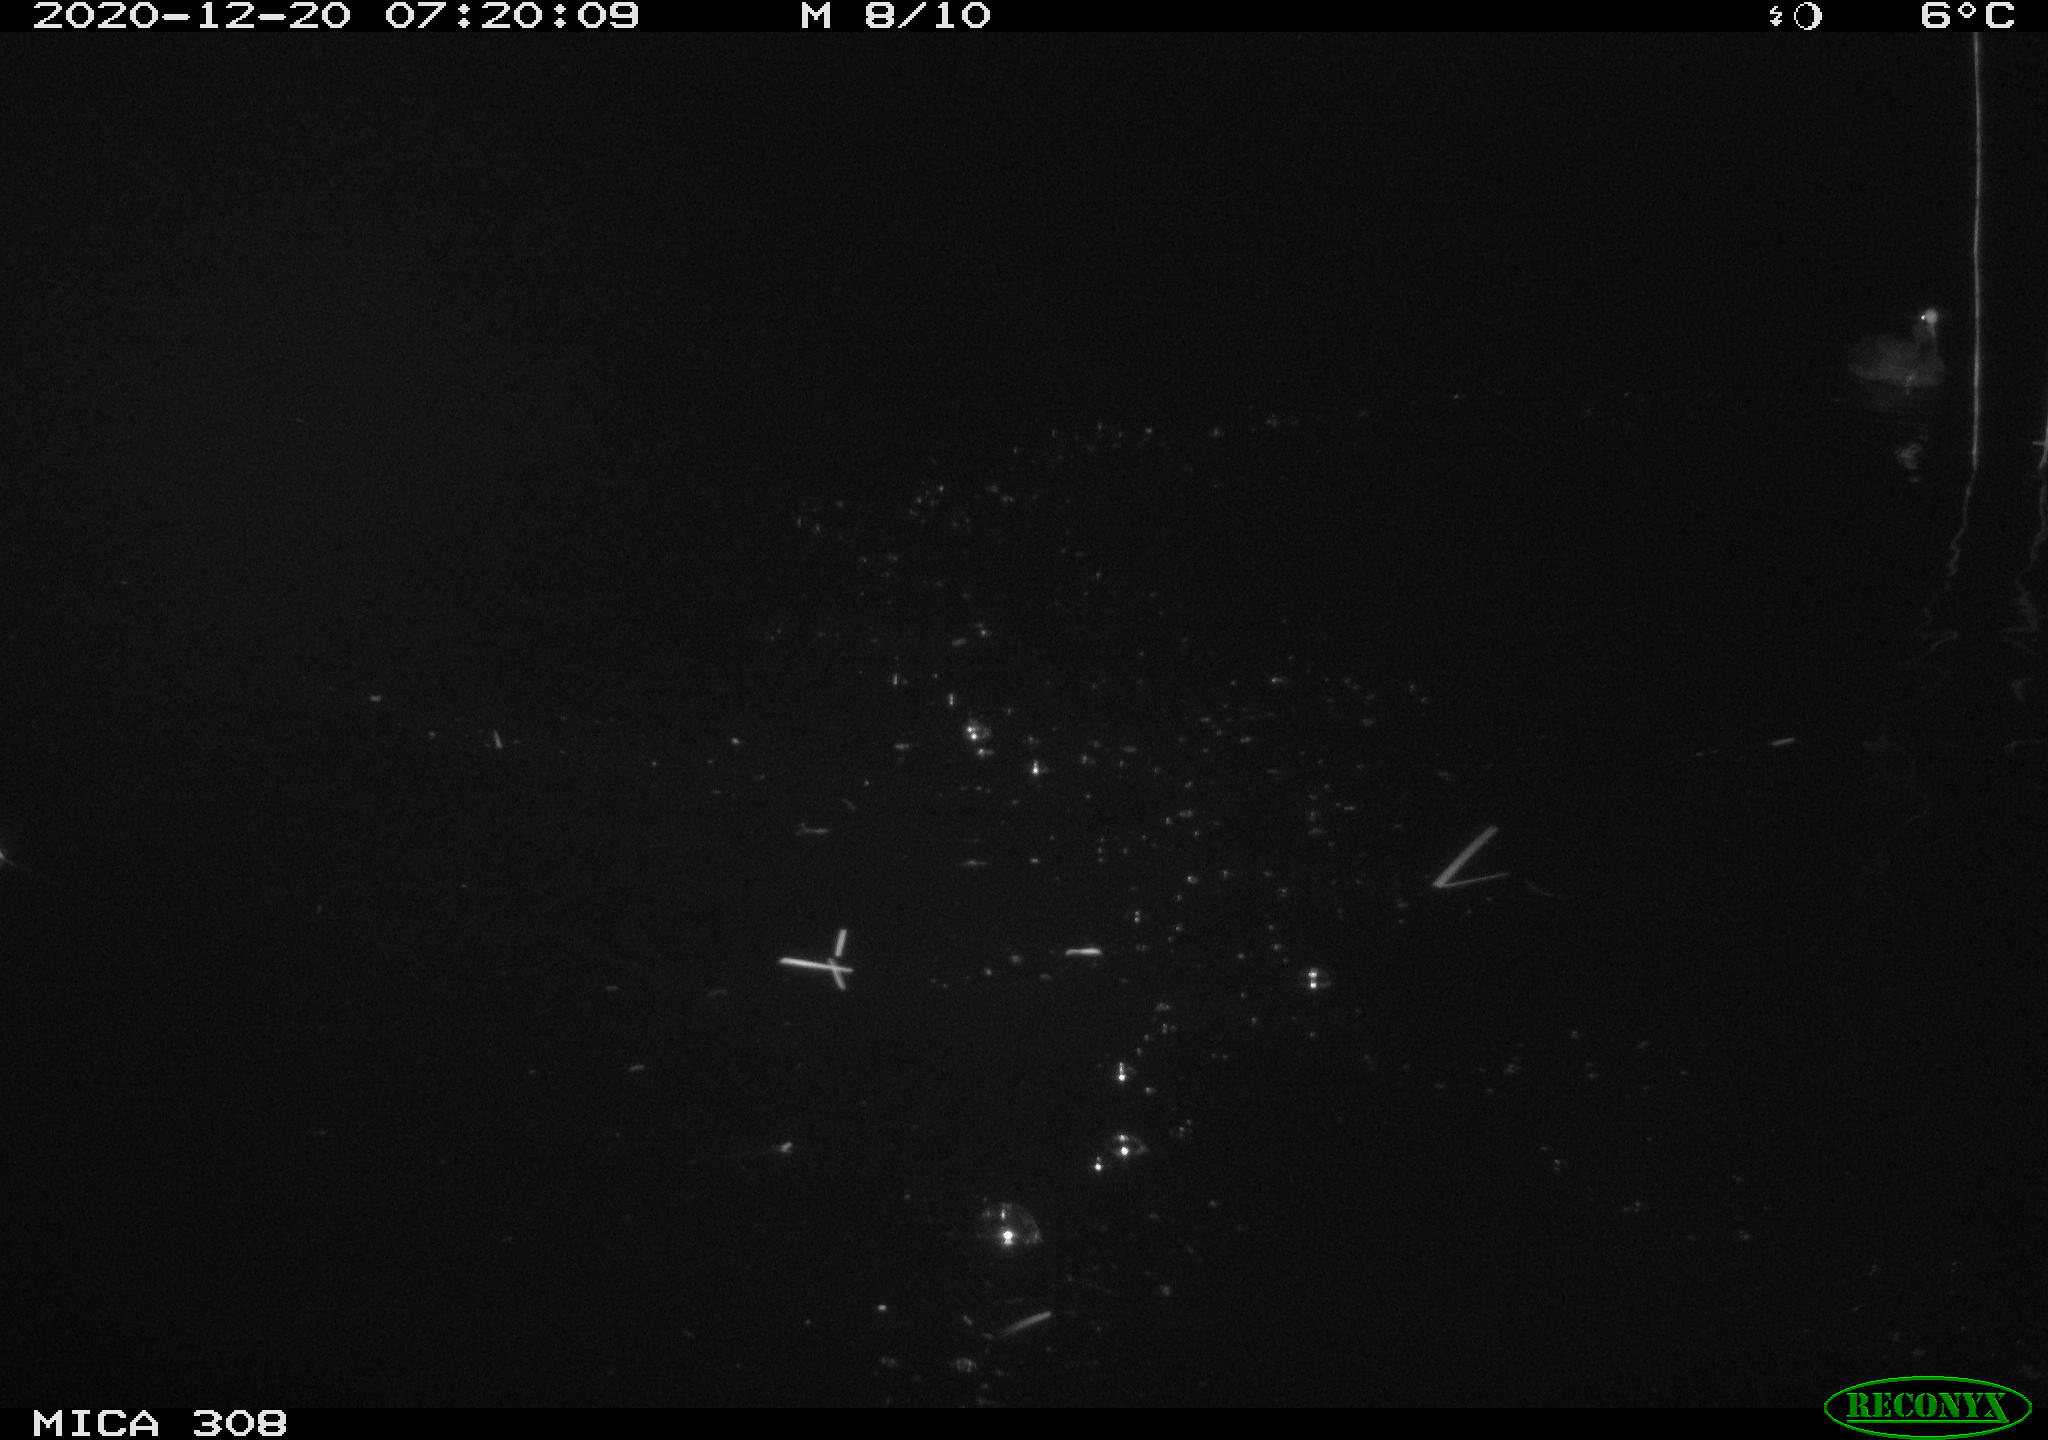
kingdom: Animalia
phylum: Chordata
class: Aves
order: Gruiformes
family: Rallidae
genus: Fulica
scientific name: Fulica atra
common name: Eurasian coot
